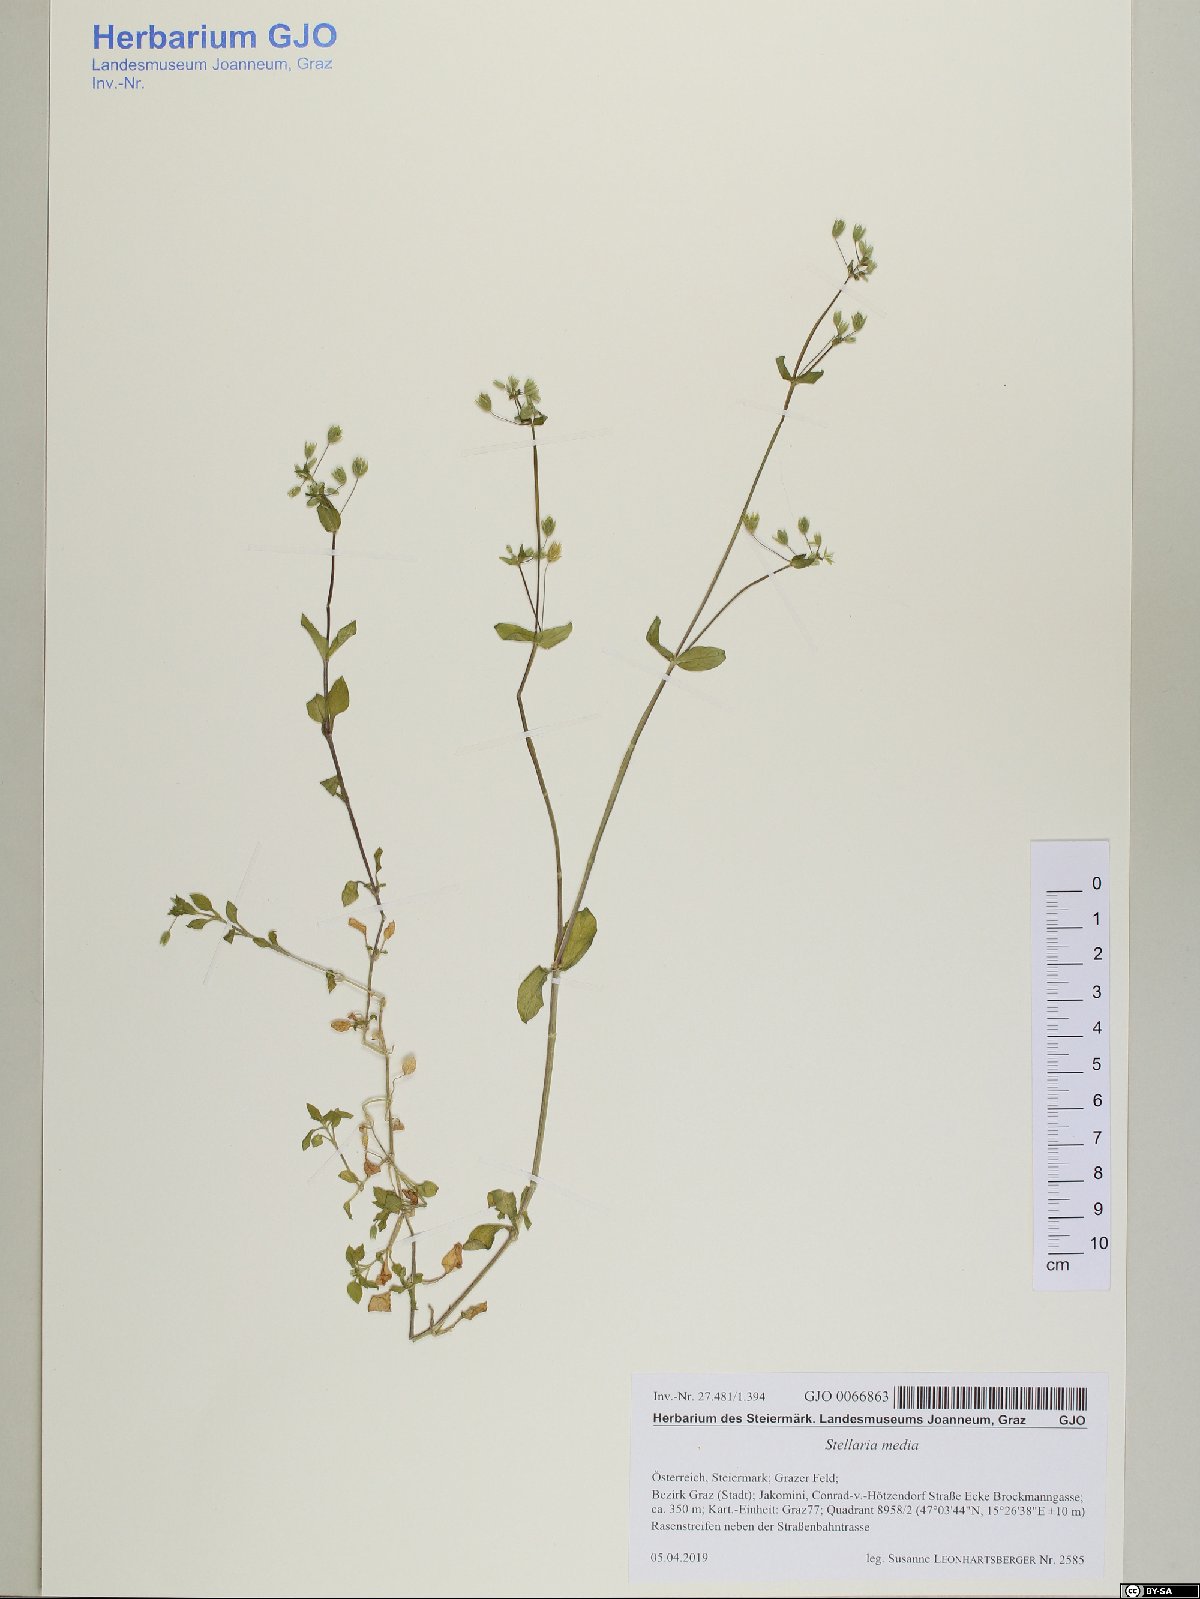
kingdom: Plantae
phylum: Tracheophyta
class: Magnoliopsida
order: Caryophyllales
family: Caryophyllaceae
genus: Stellaria
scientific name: Stellaria media
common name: Common chickweed
